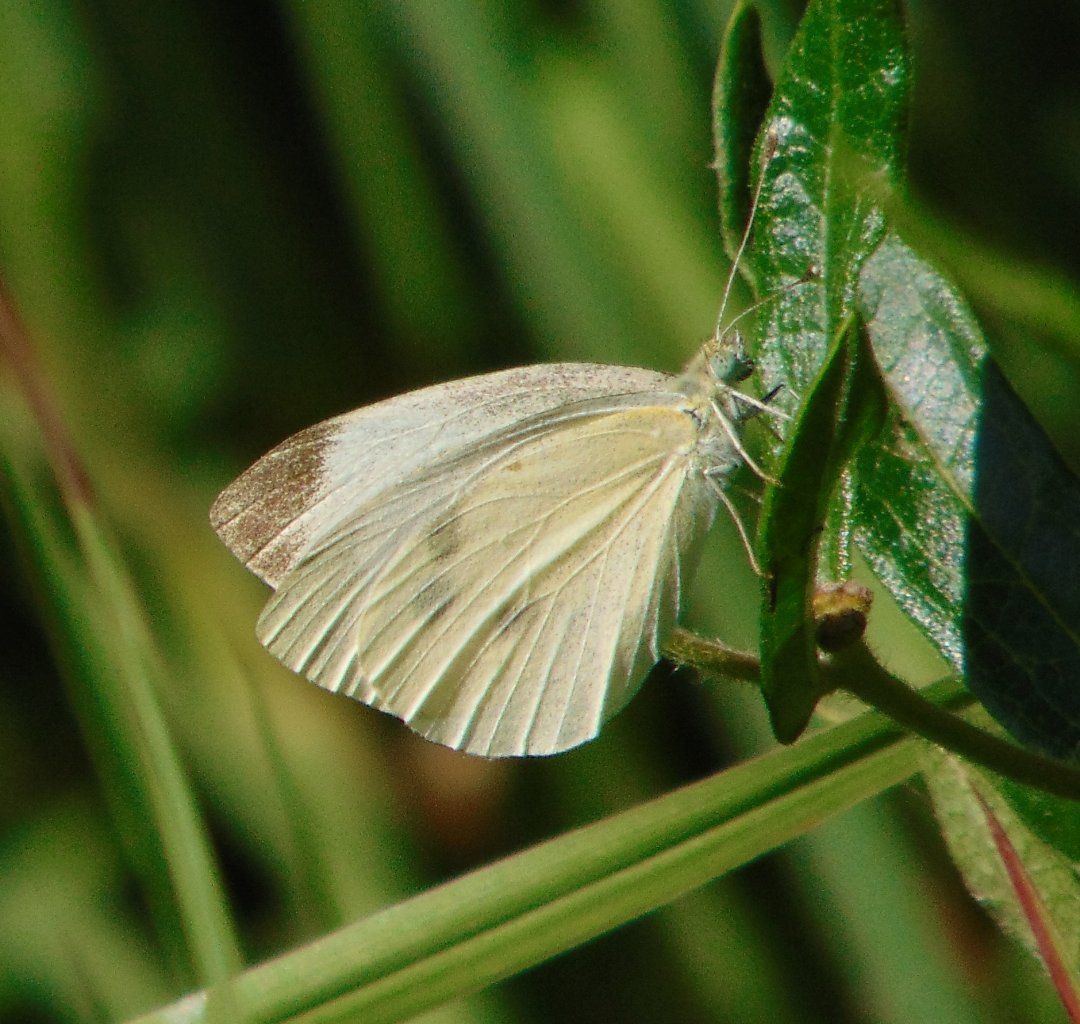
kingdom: Animalia
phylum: Arthropoda
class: Insecta
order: Lepidoptera
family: Pieridae
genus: Pieris
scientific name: Pieris rapae
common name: Cabbage White
